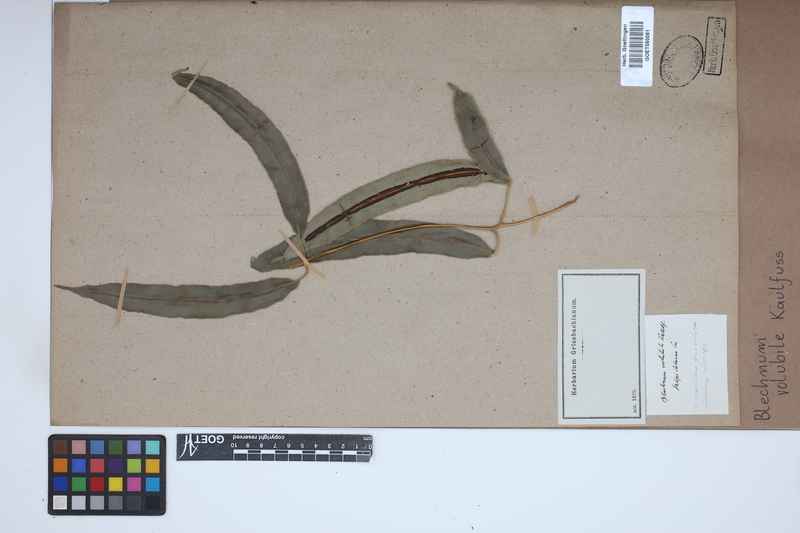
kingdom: Plantae
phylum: Tracheophyta
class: Polypodiopsida
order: Polypodiales
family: Blechnaceae
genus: Salpichlaena
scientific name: Salpichlaena volubilis
